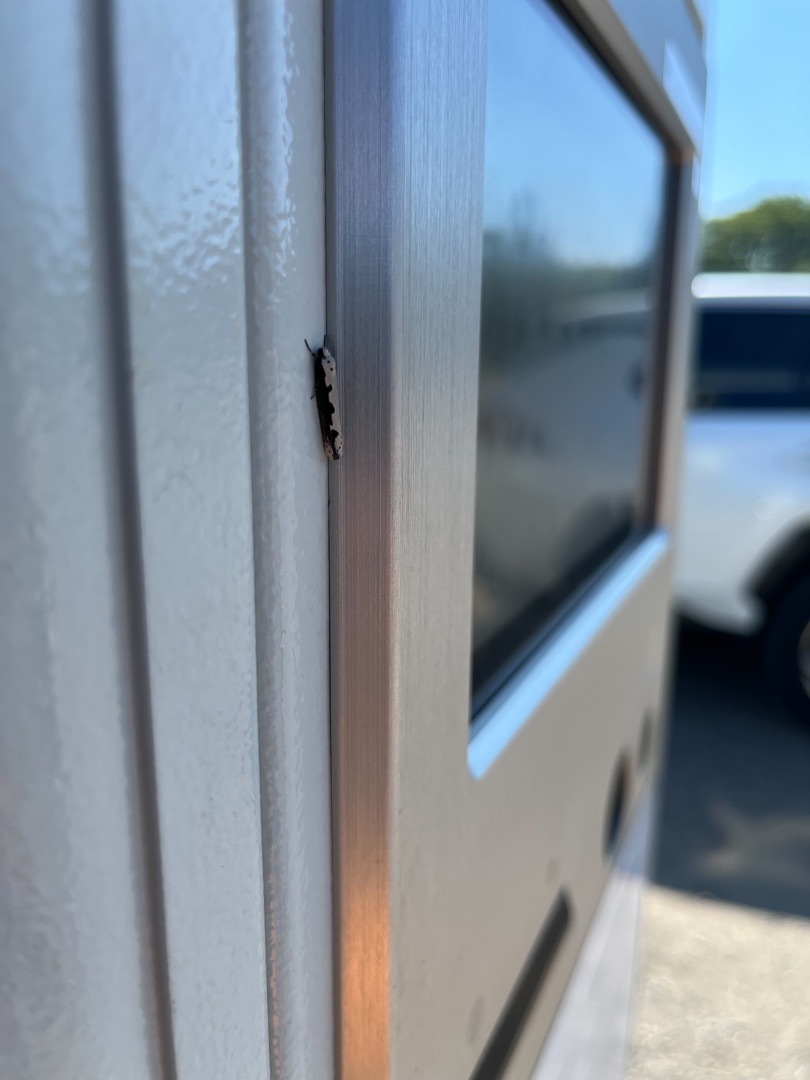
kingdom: Animalia
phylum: Arthropoda
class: Insecta
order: Lepidoptera
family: Ethmiidae
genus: Ethmia
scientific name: Ethmia bipunctella
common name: Slangehovedmøl
